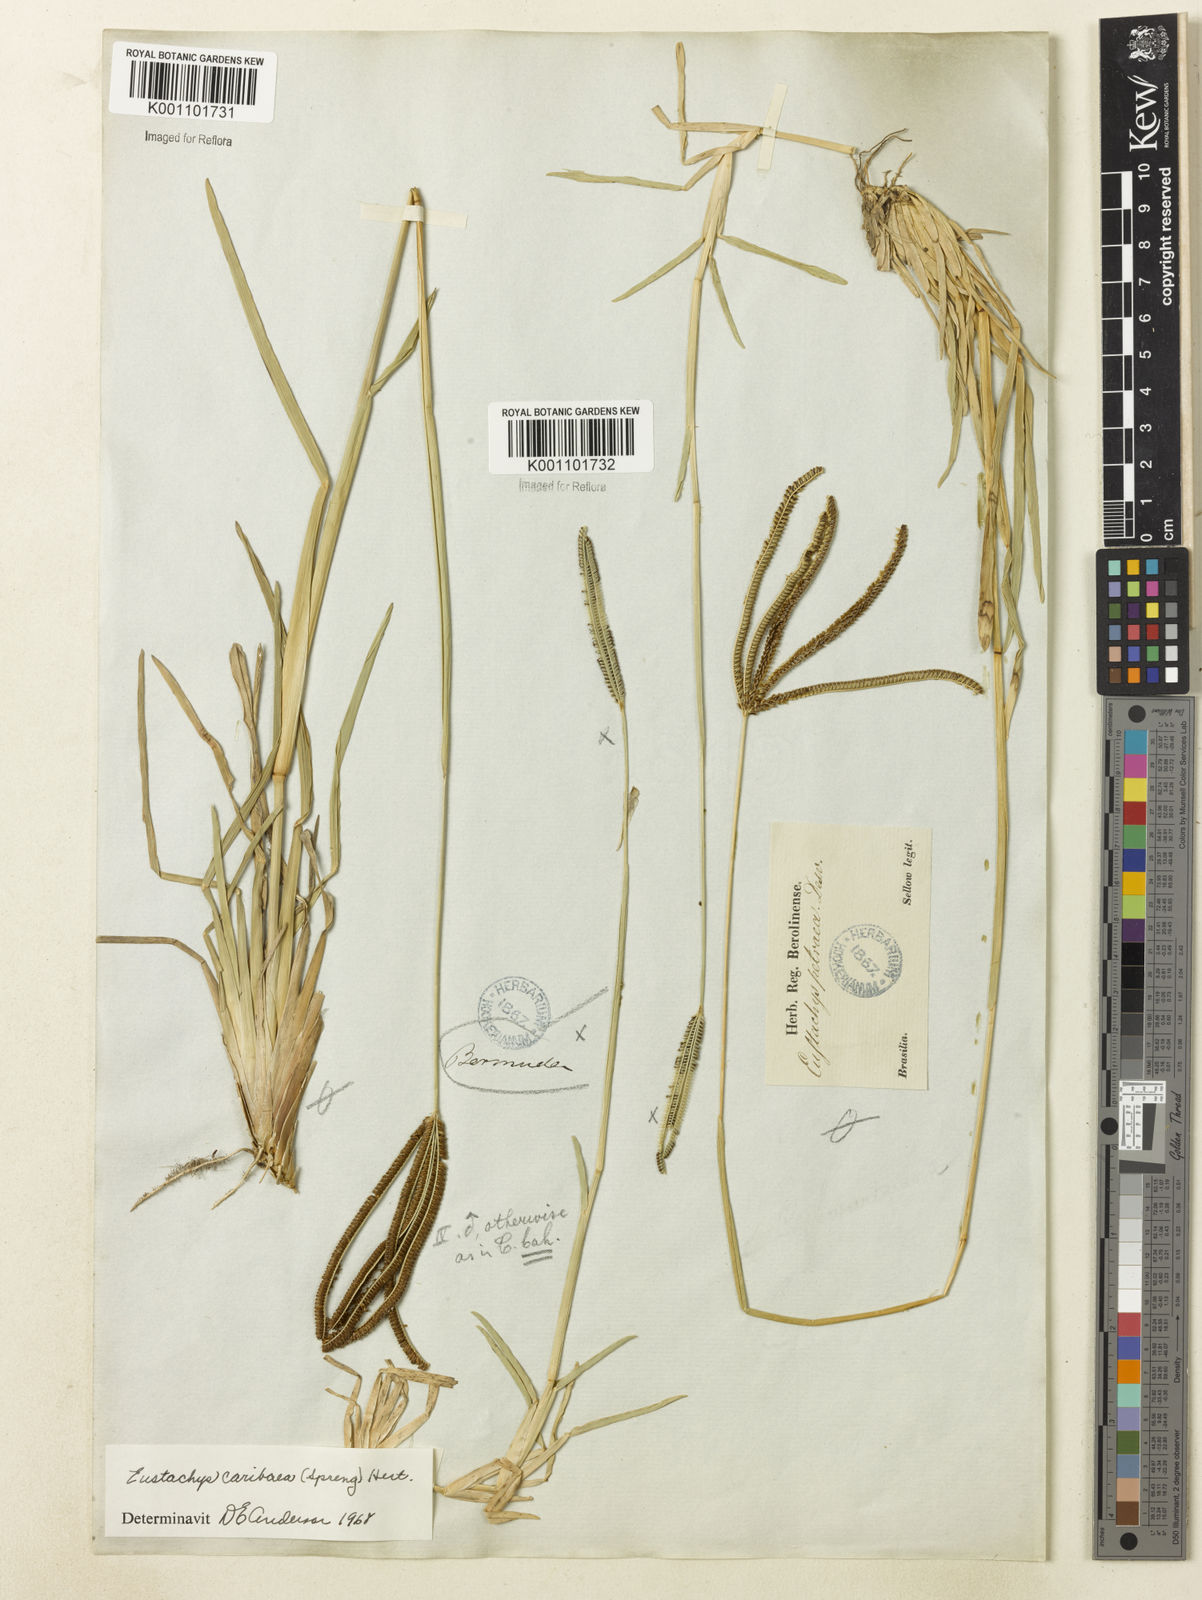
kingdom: Plantae
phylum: Tracheophyta
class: Liliopsida
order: Poales
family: Poaceae
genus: Eustachys
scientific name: Eustachys bahiensis
